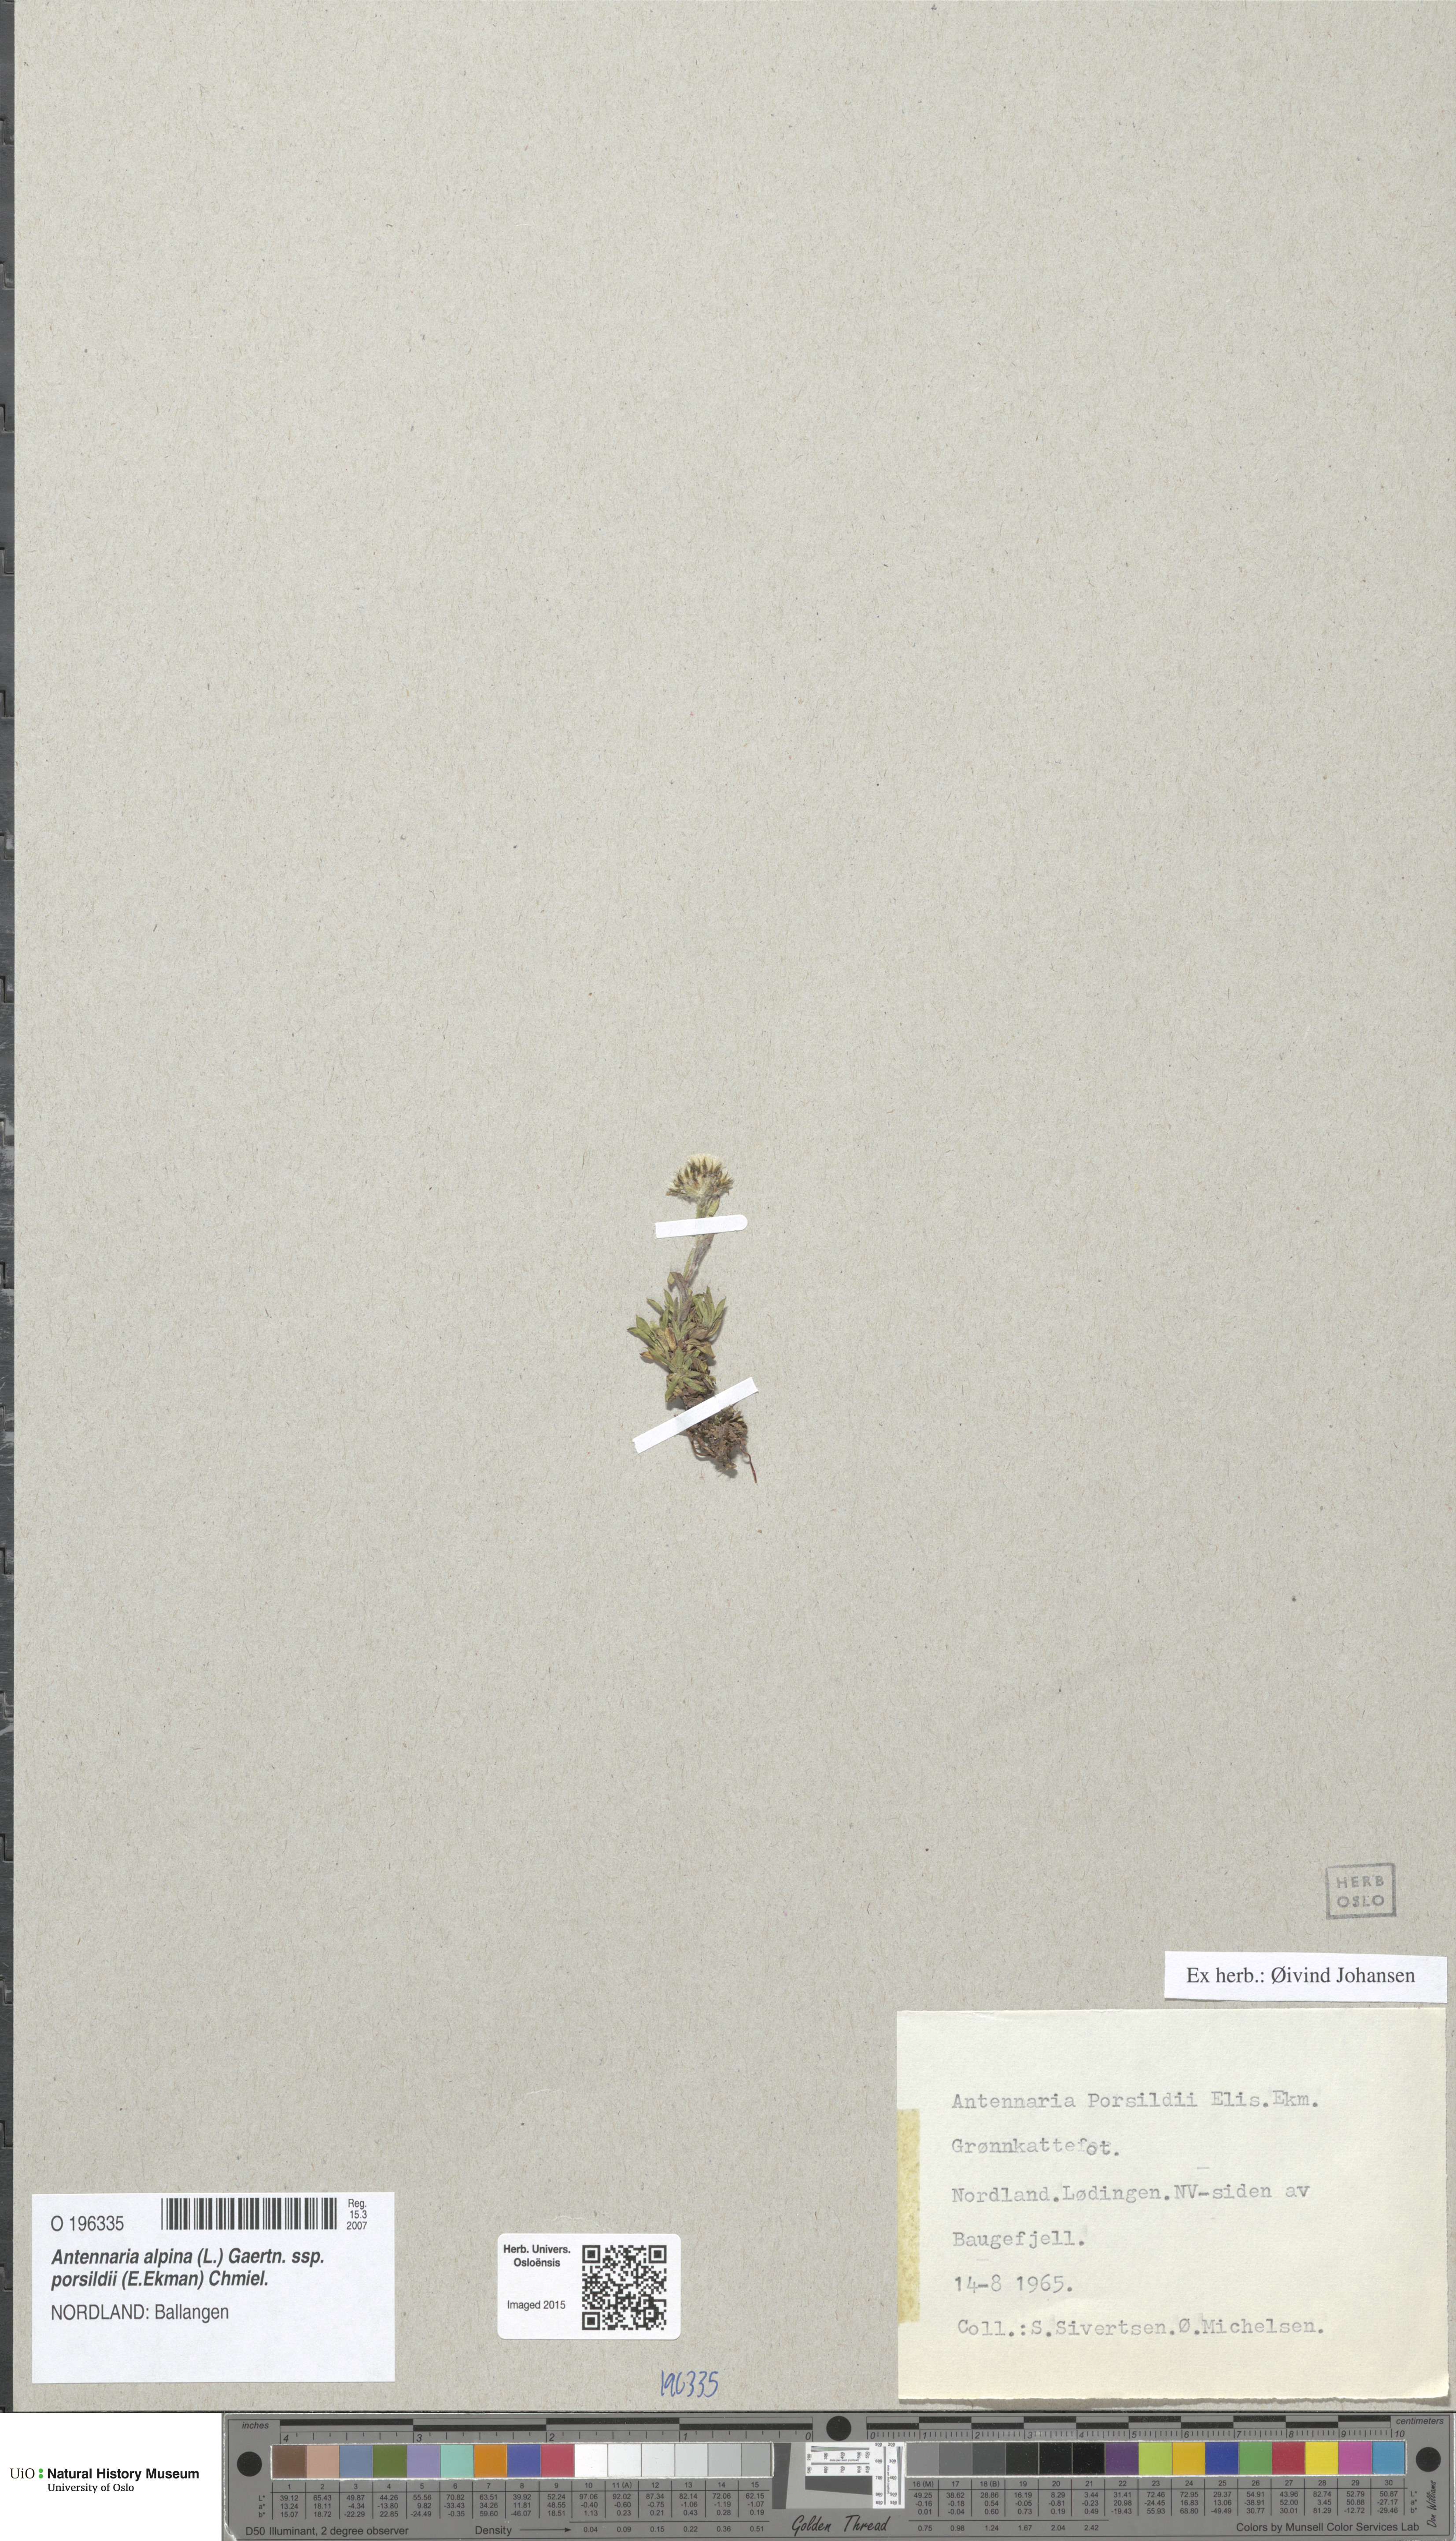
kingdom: Plantae
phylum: Tracheophyta
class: Magnoliopsida
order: Asterales
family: Asteraceae
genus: Antennaria
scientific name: Antennaria porsildii
